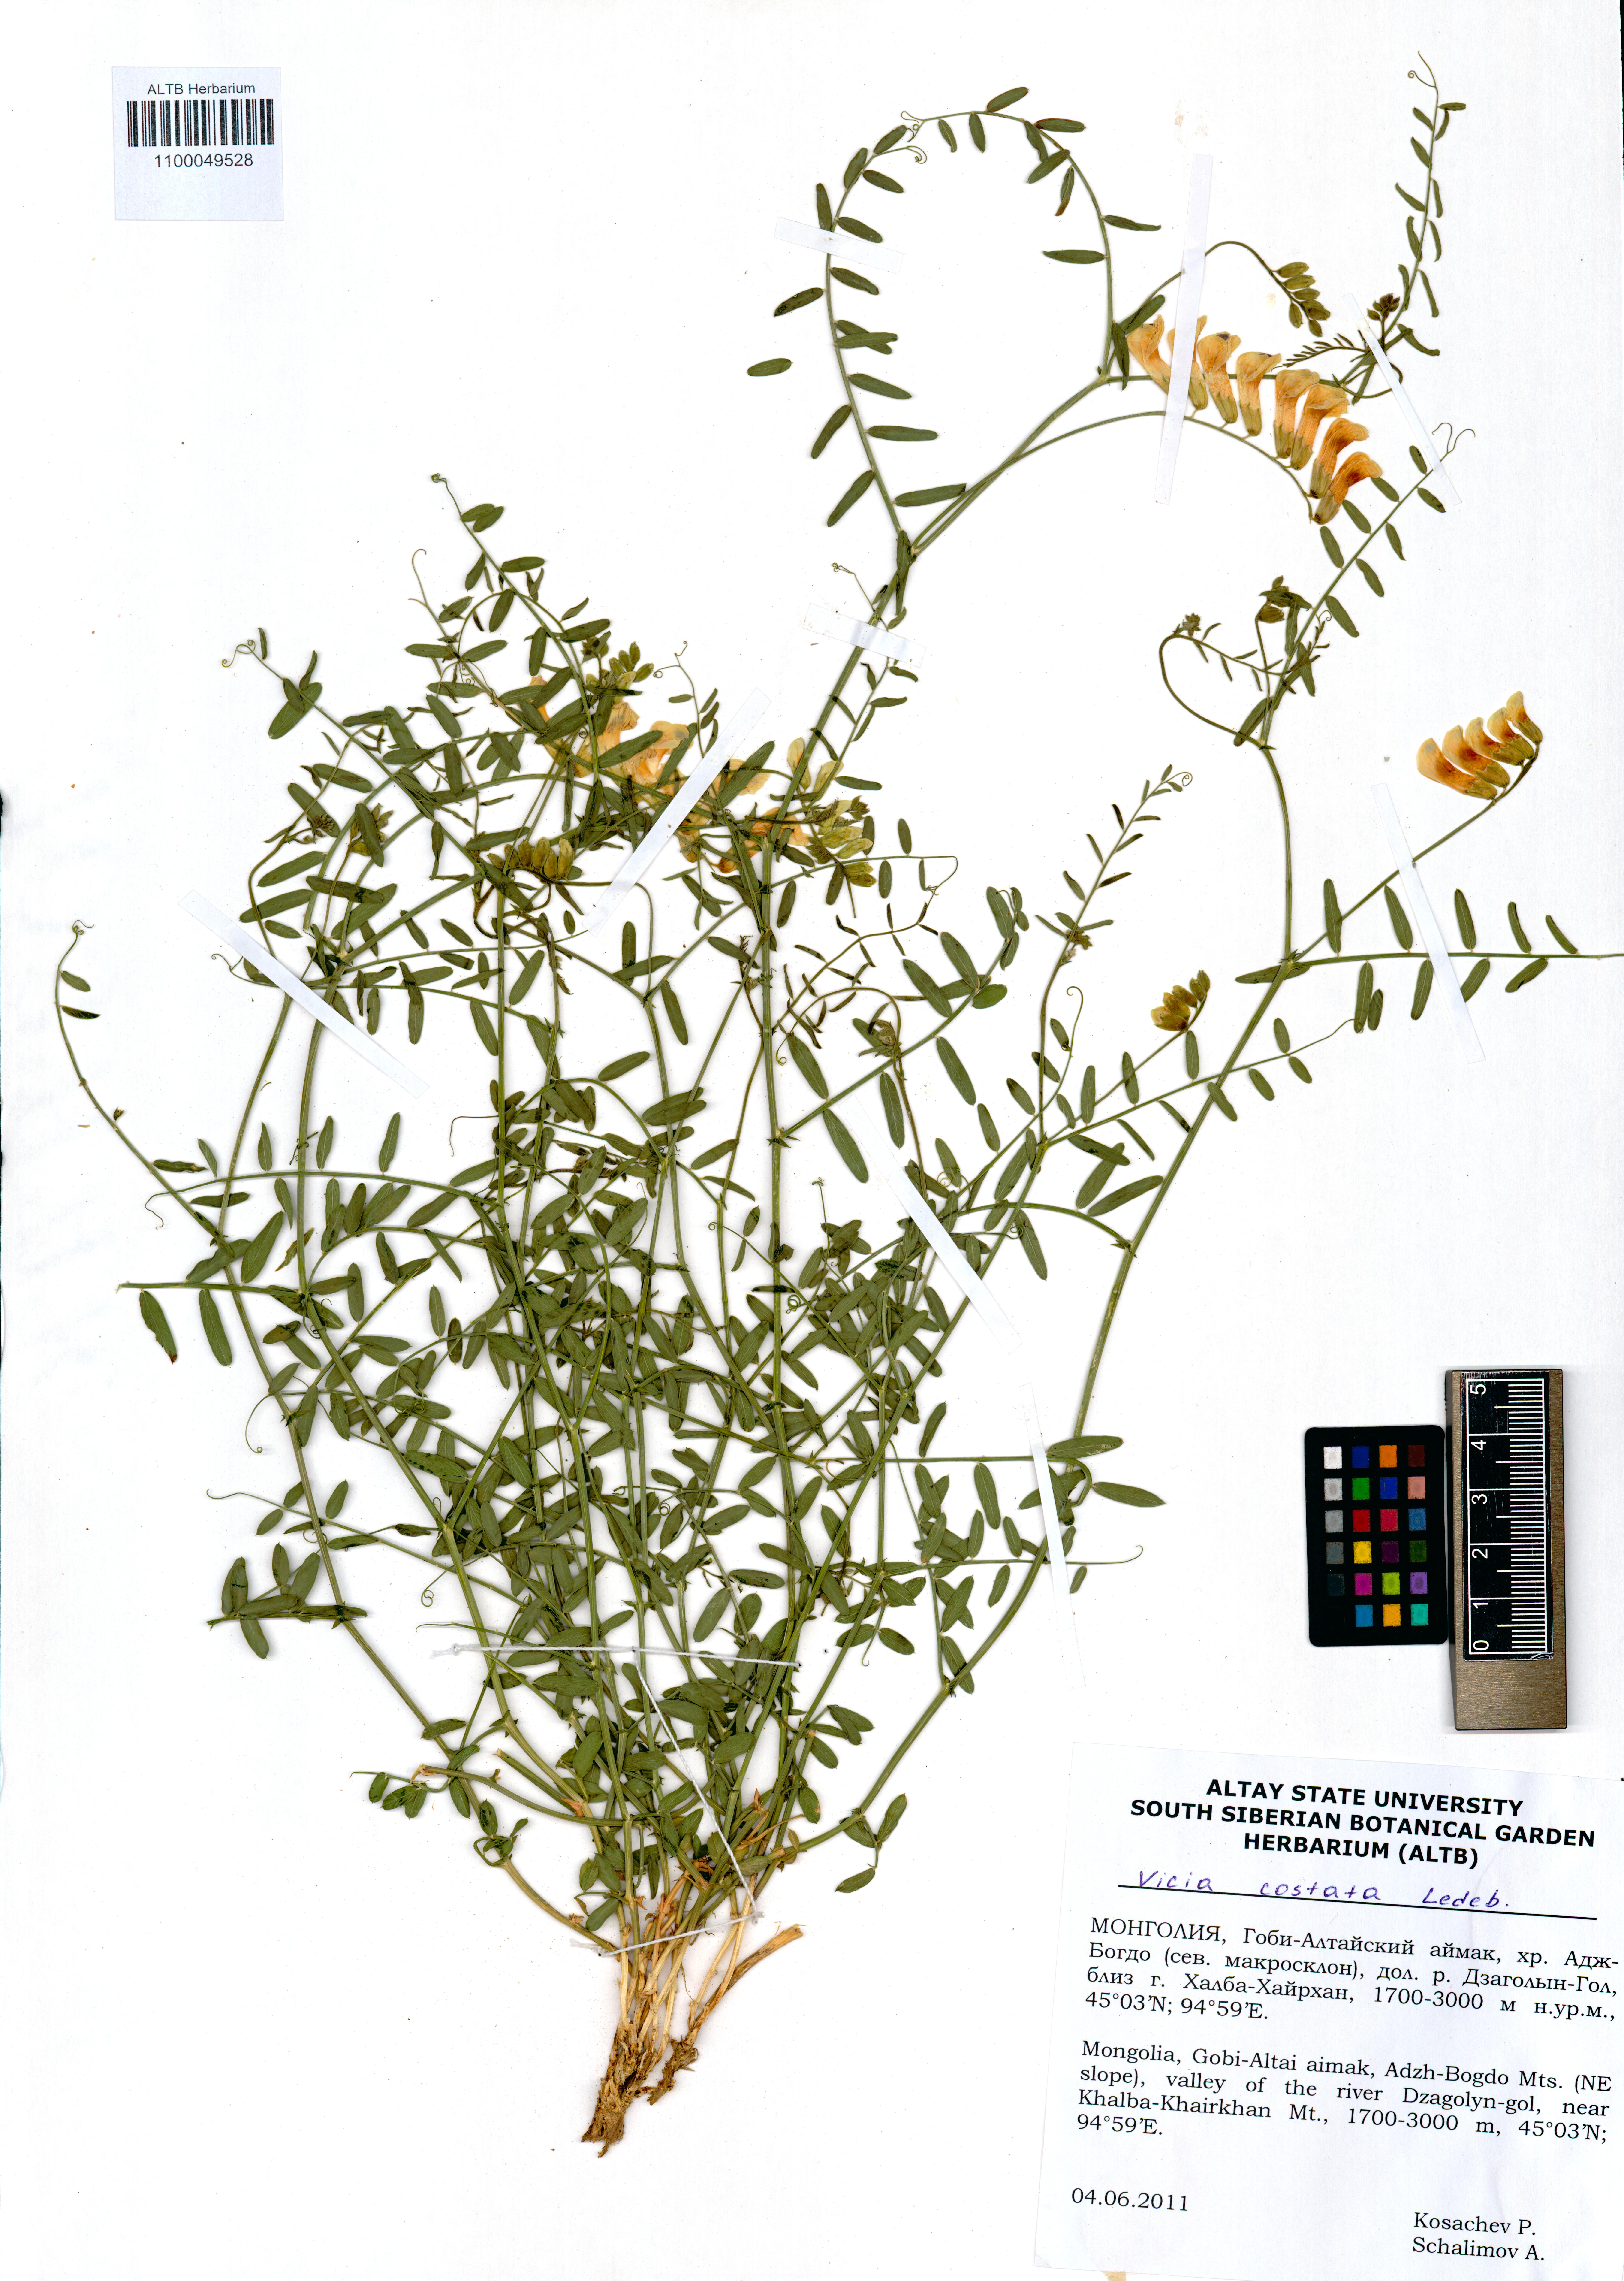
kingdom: Plantae
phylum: Tracheophyta
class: Magnoliopsida
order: Fabales
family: Fabaceae
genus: Vicia
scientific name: Vicia costata
